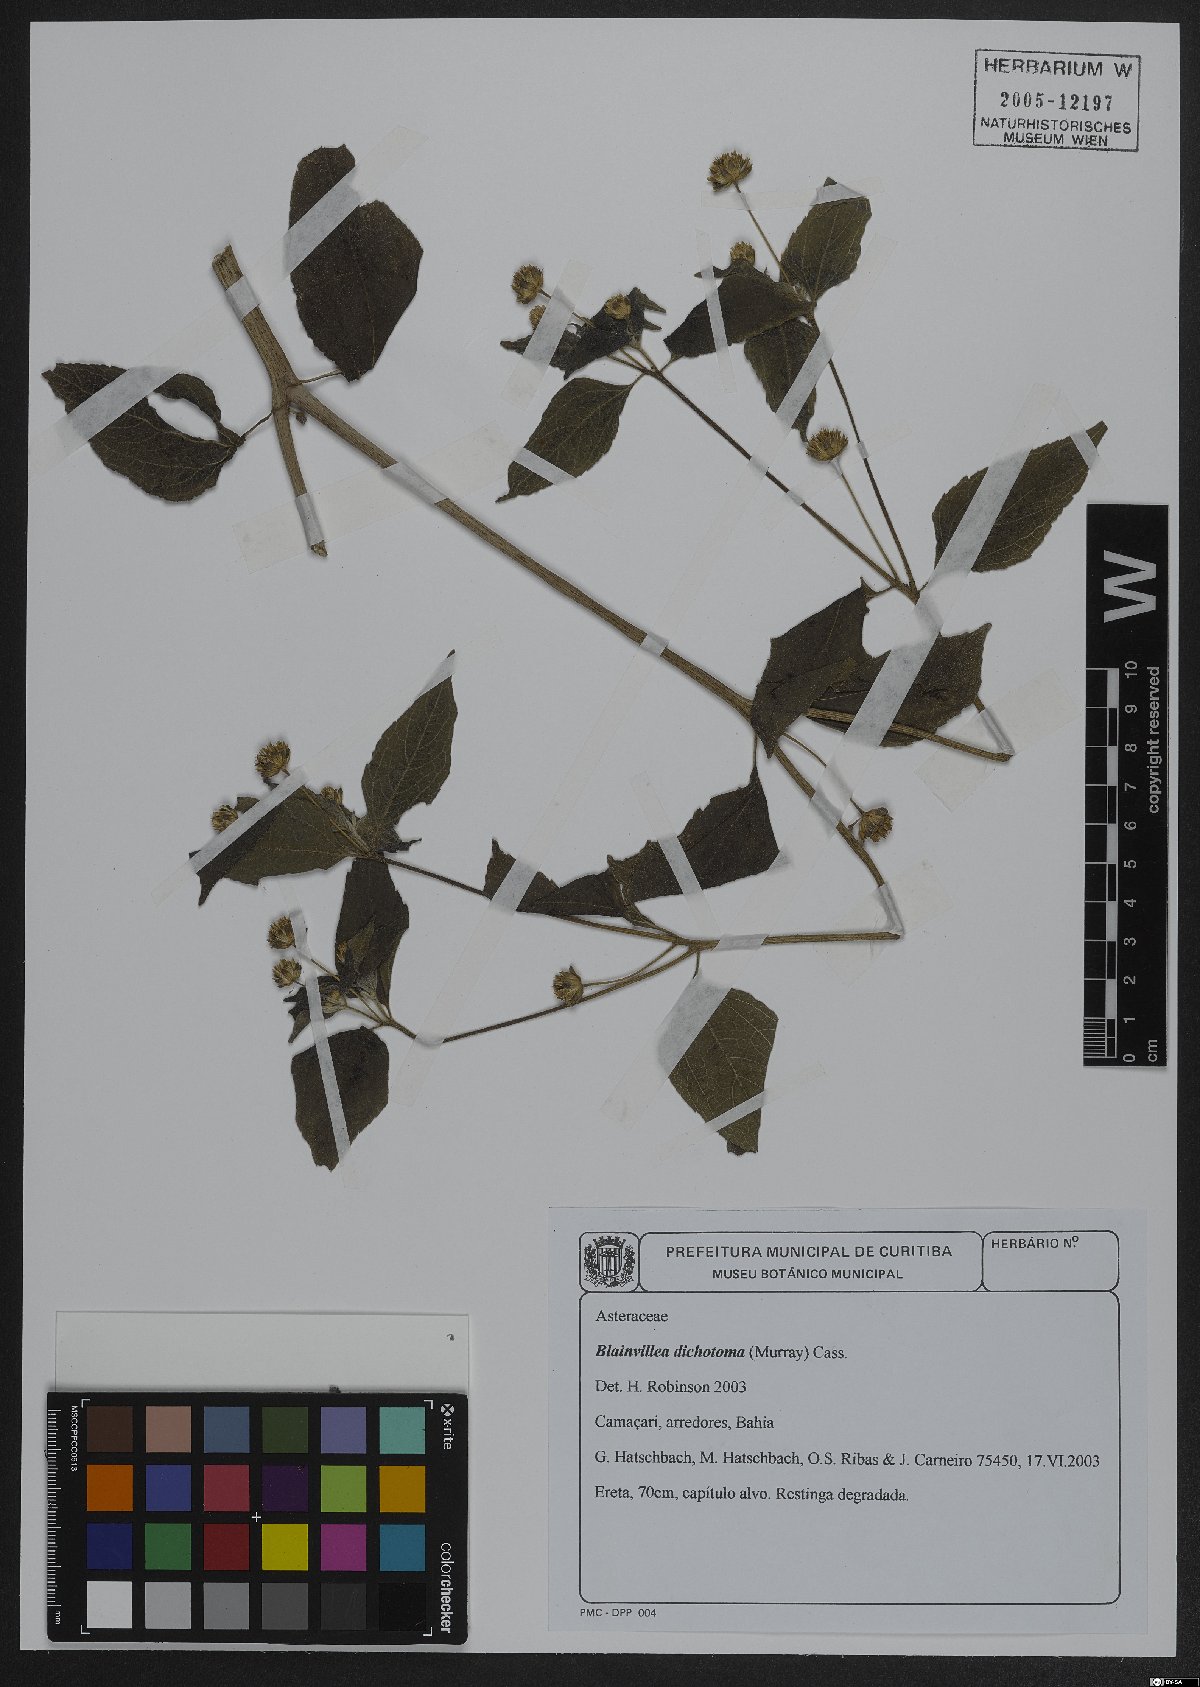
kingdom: Plantae
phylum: Tracheophyta
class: Magnoliopsida
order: Asterales
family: Asteraceae
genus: Blainvillea
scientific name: Blainvillea dichotoma
